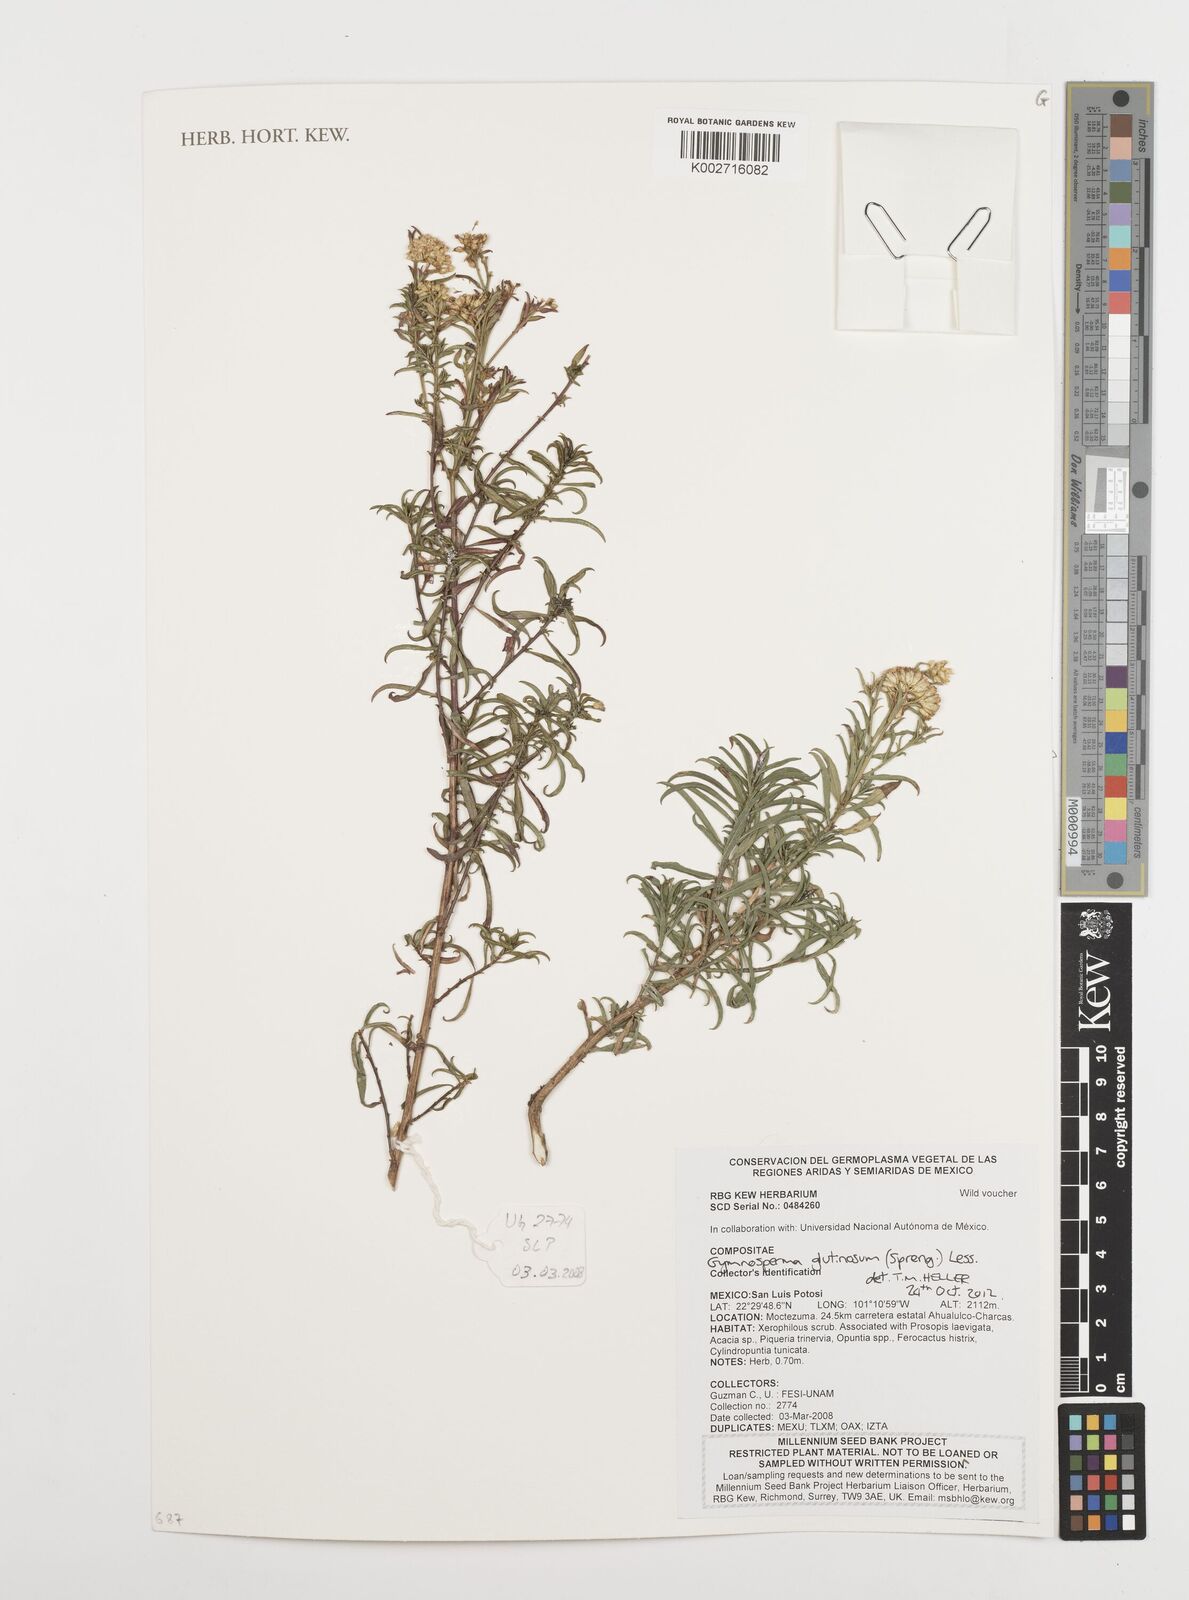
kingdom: Plantae
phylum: Tracheophyta
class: Magnoliopsida
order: Asterales
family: Asteraceae
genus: Gymnosperma
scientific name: Gymnosperma glutinosum
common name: Gumhead
